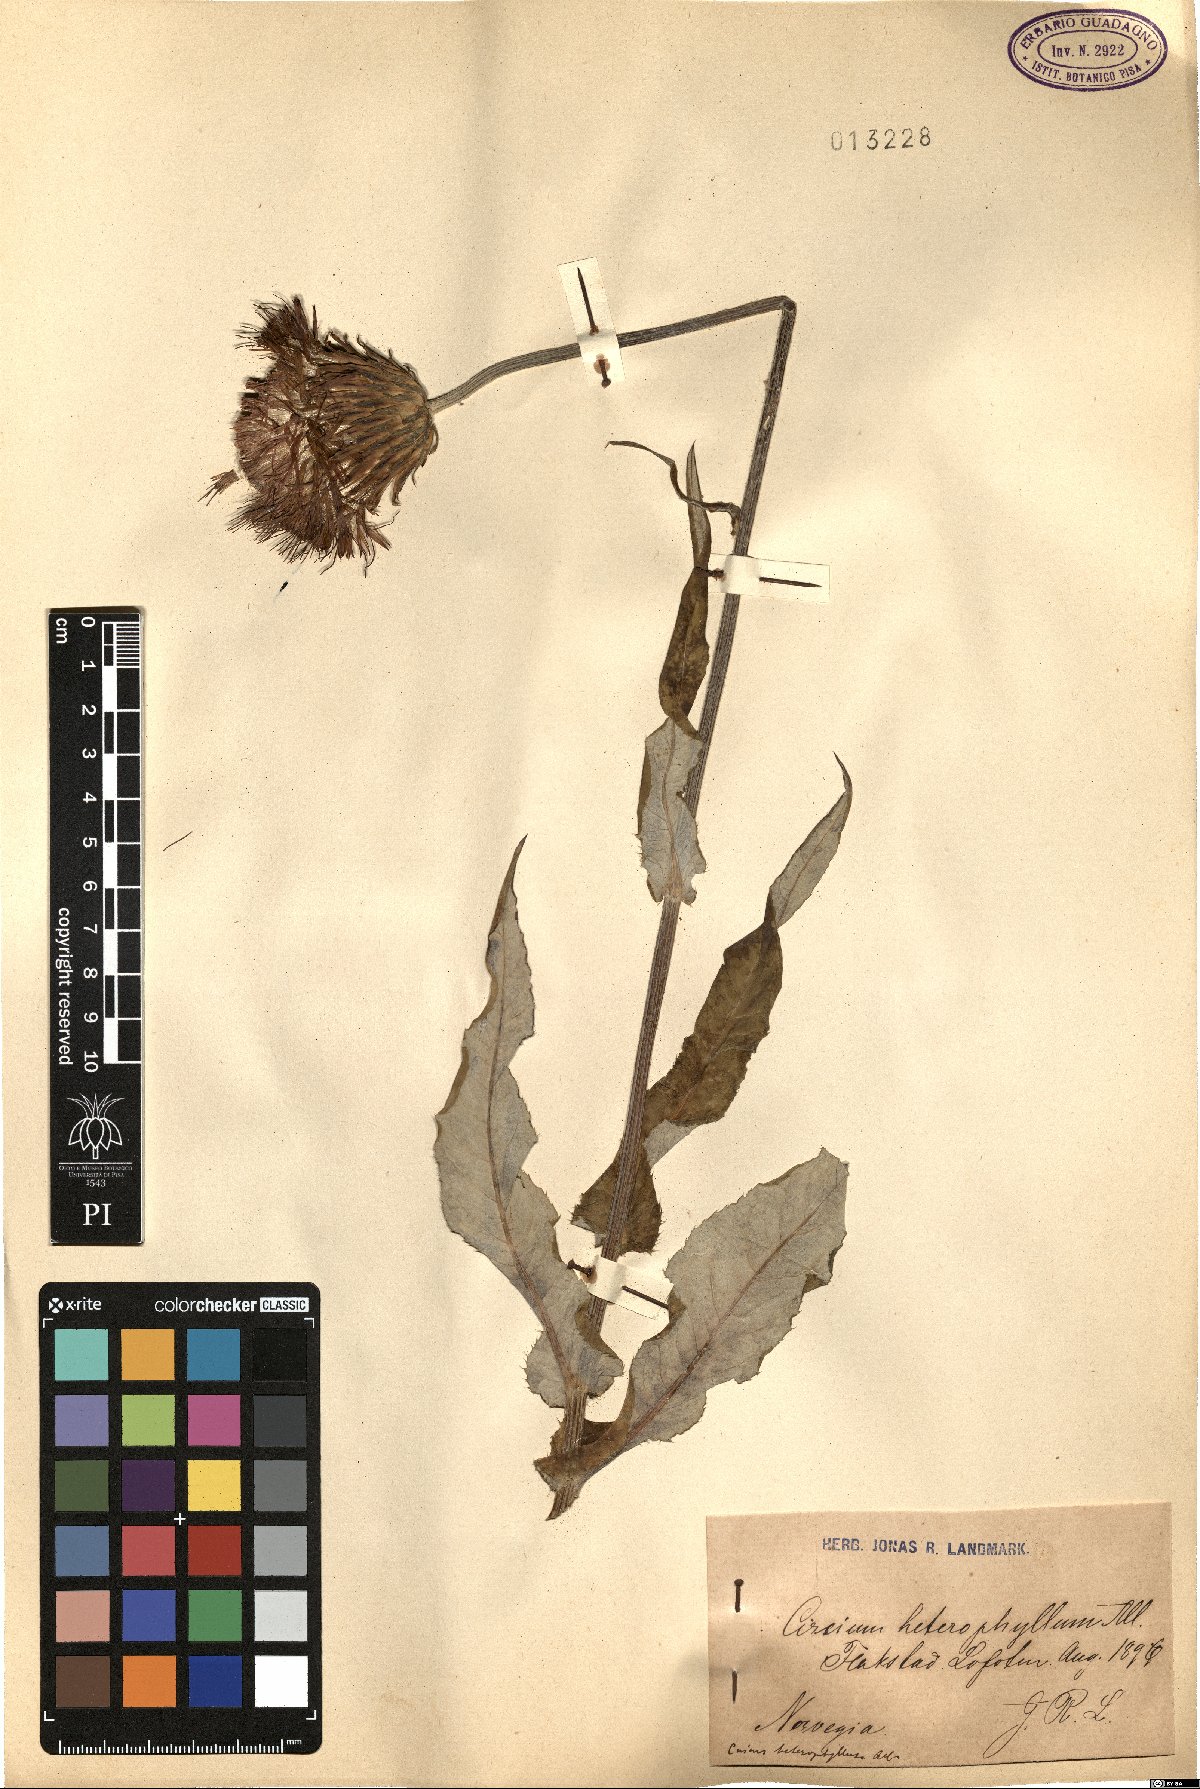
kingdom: Plantae
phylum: Tracheophyta
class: Magnoliopsida
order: Asterales
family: Asteraceae
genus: Cirsium
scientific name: Cirsium heterophyllum
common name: Melancholy thistle
